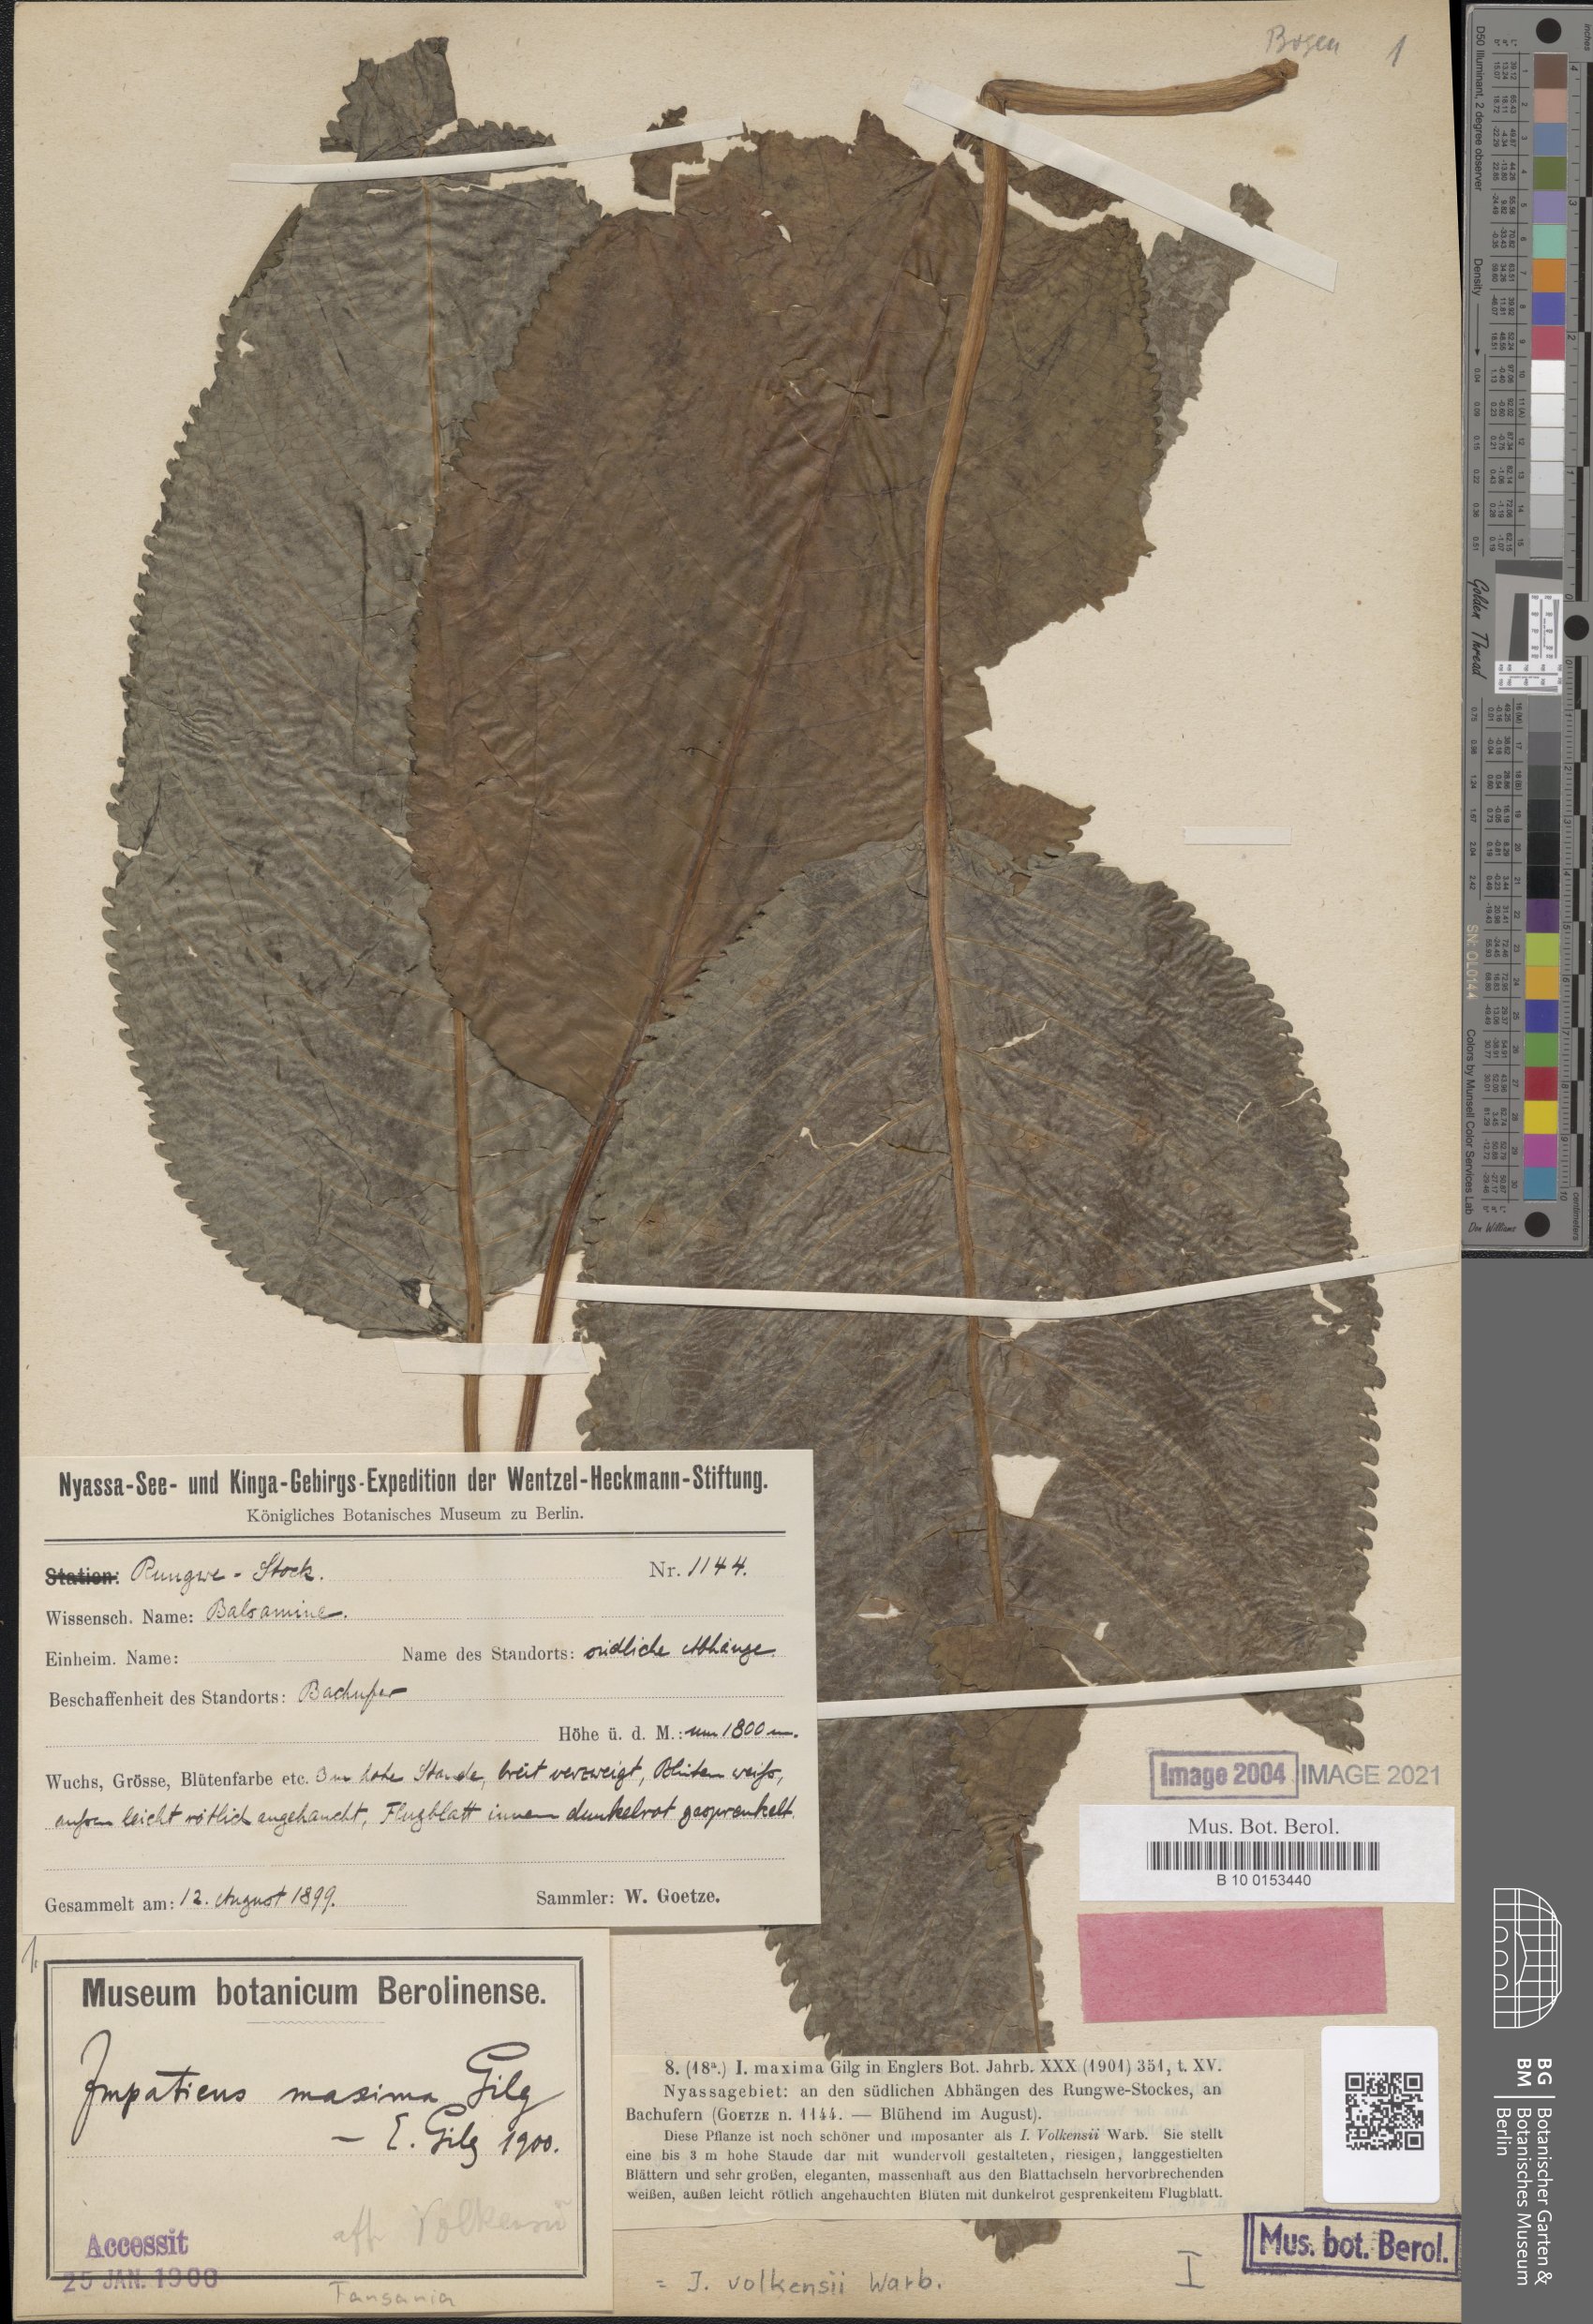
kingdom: Plantae
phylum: Tracheophyta
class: Magnoliopsida
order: Ericales
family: Balsaminaceae
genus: Impatiens
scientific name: Impatiens volkensii
